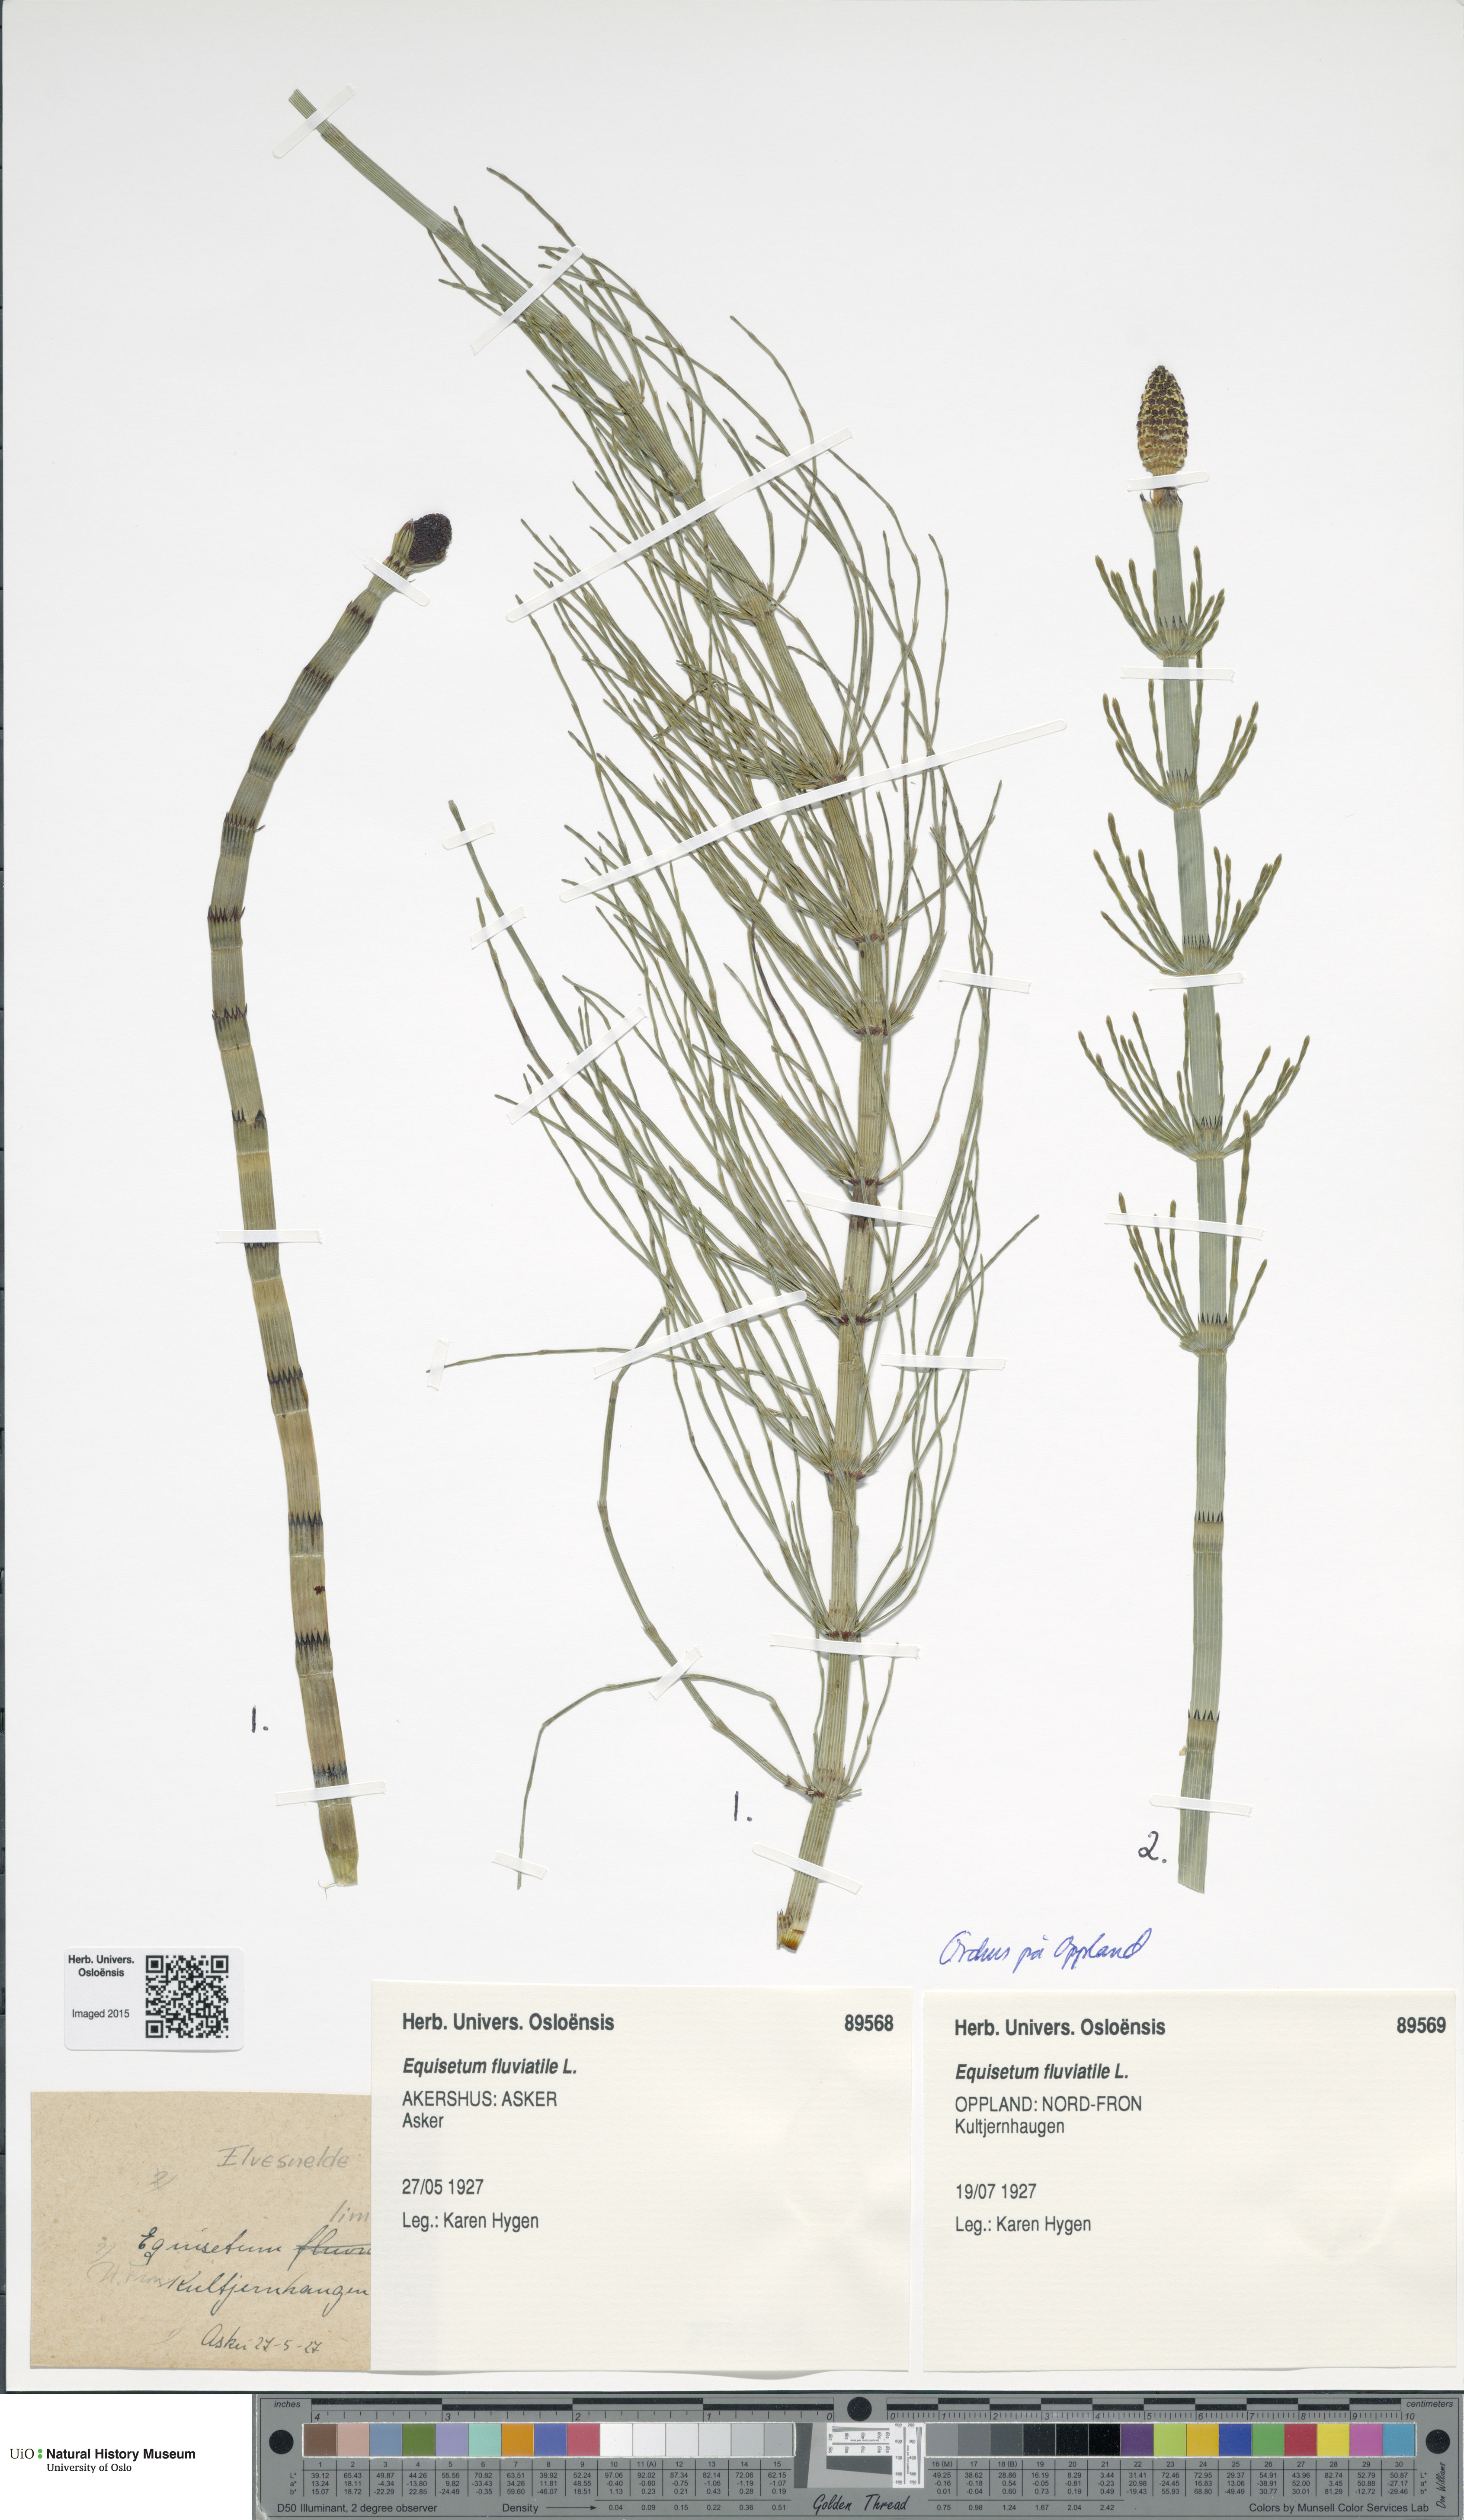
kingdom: Plantae
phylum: Tracheophyta
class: Polypodiopsida
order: Equisetales
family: Equisetaceae
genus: Equisetum
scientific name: Equisetum fluviatile
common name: Water horsetail
